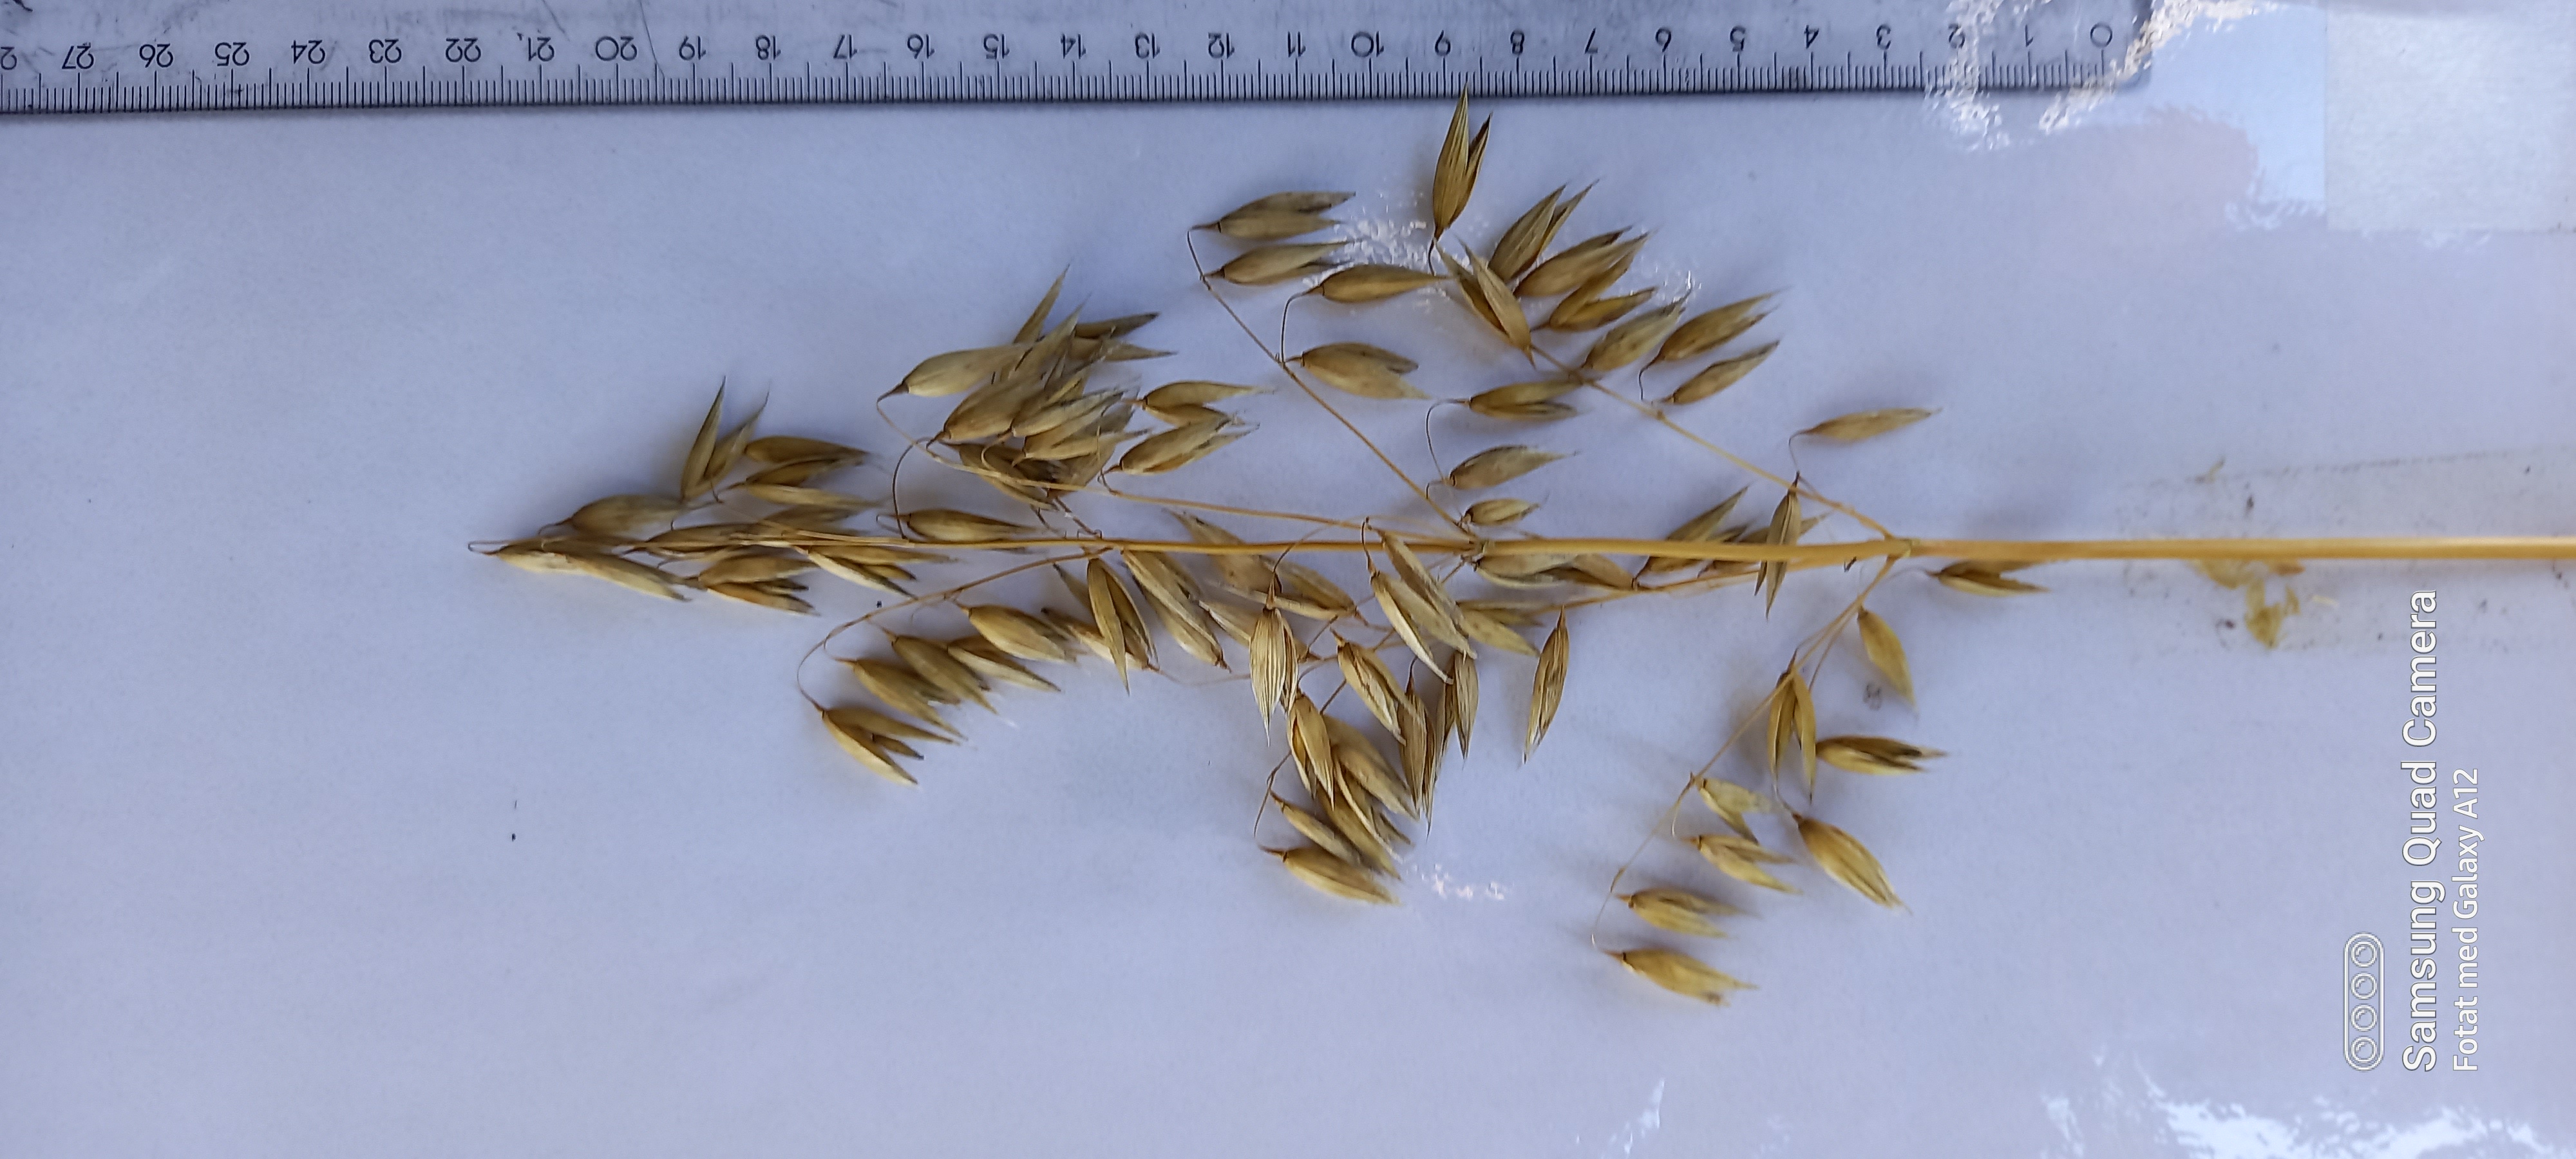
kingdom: Plantae
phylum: Tracheophyta
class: Liliopsida
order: Poales
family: Poaceae
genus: Avena
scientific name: Avena sativa
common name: Oat
